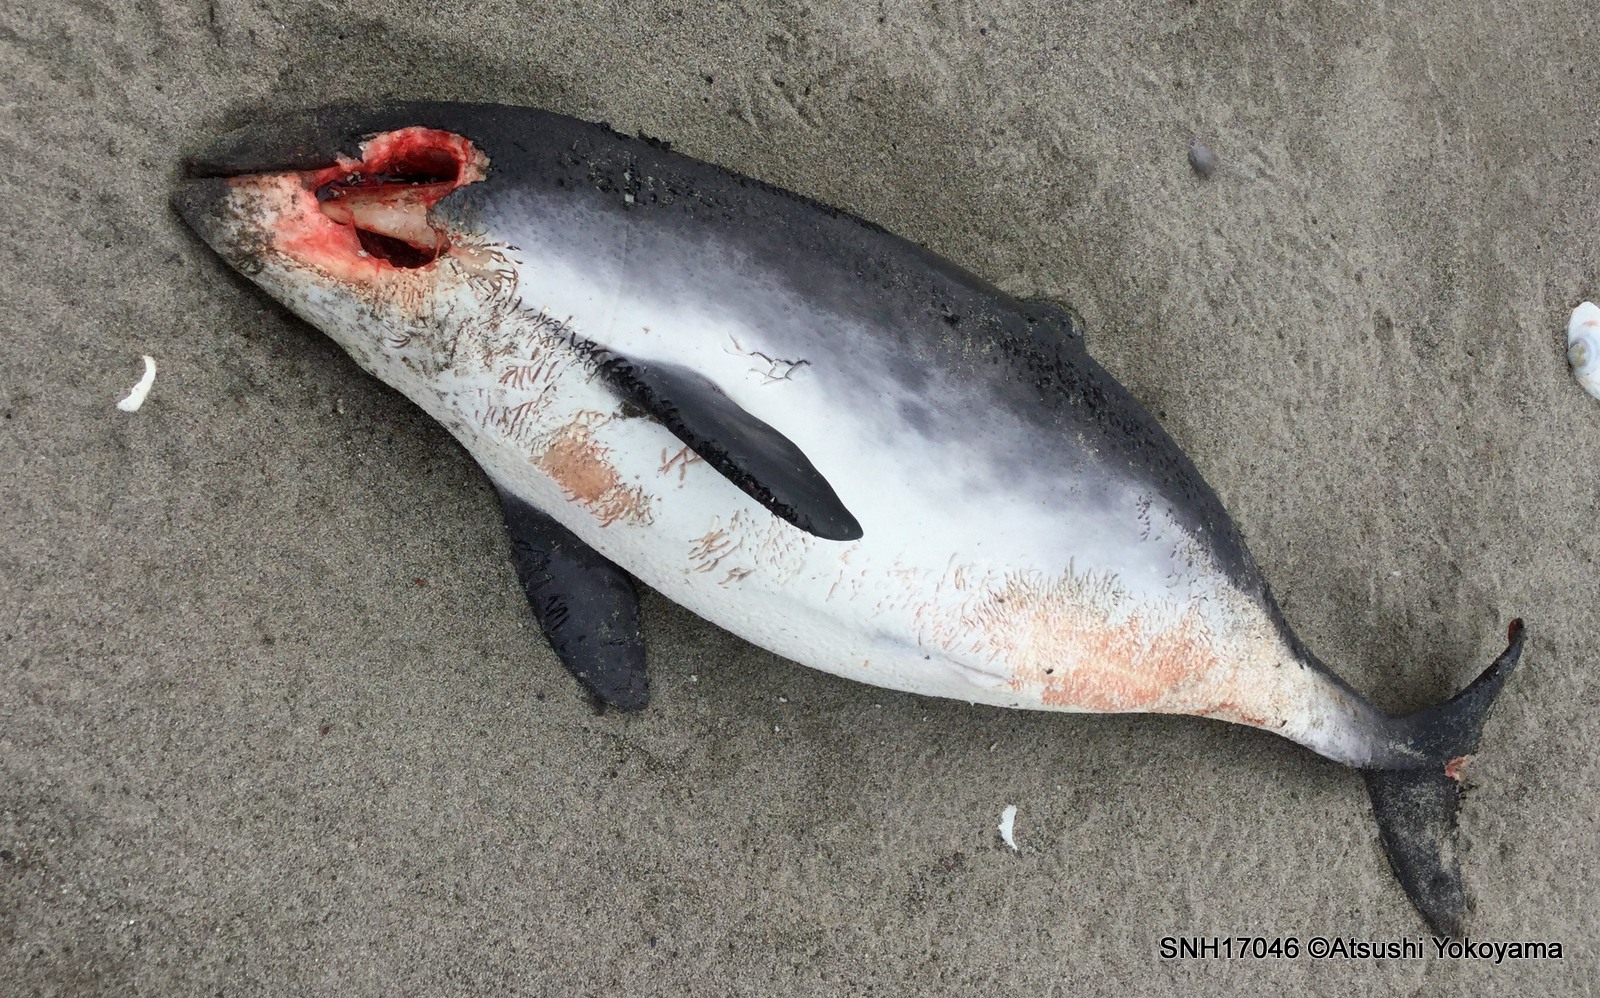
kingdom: Animalia
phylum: Chordata
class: Mammalia
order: Cetacea
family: Phocoenidae
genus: Phocoena
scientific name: Phocoena phocoena
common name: Harbour porpoise
